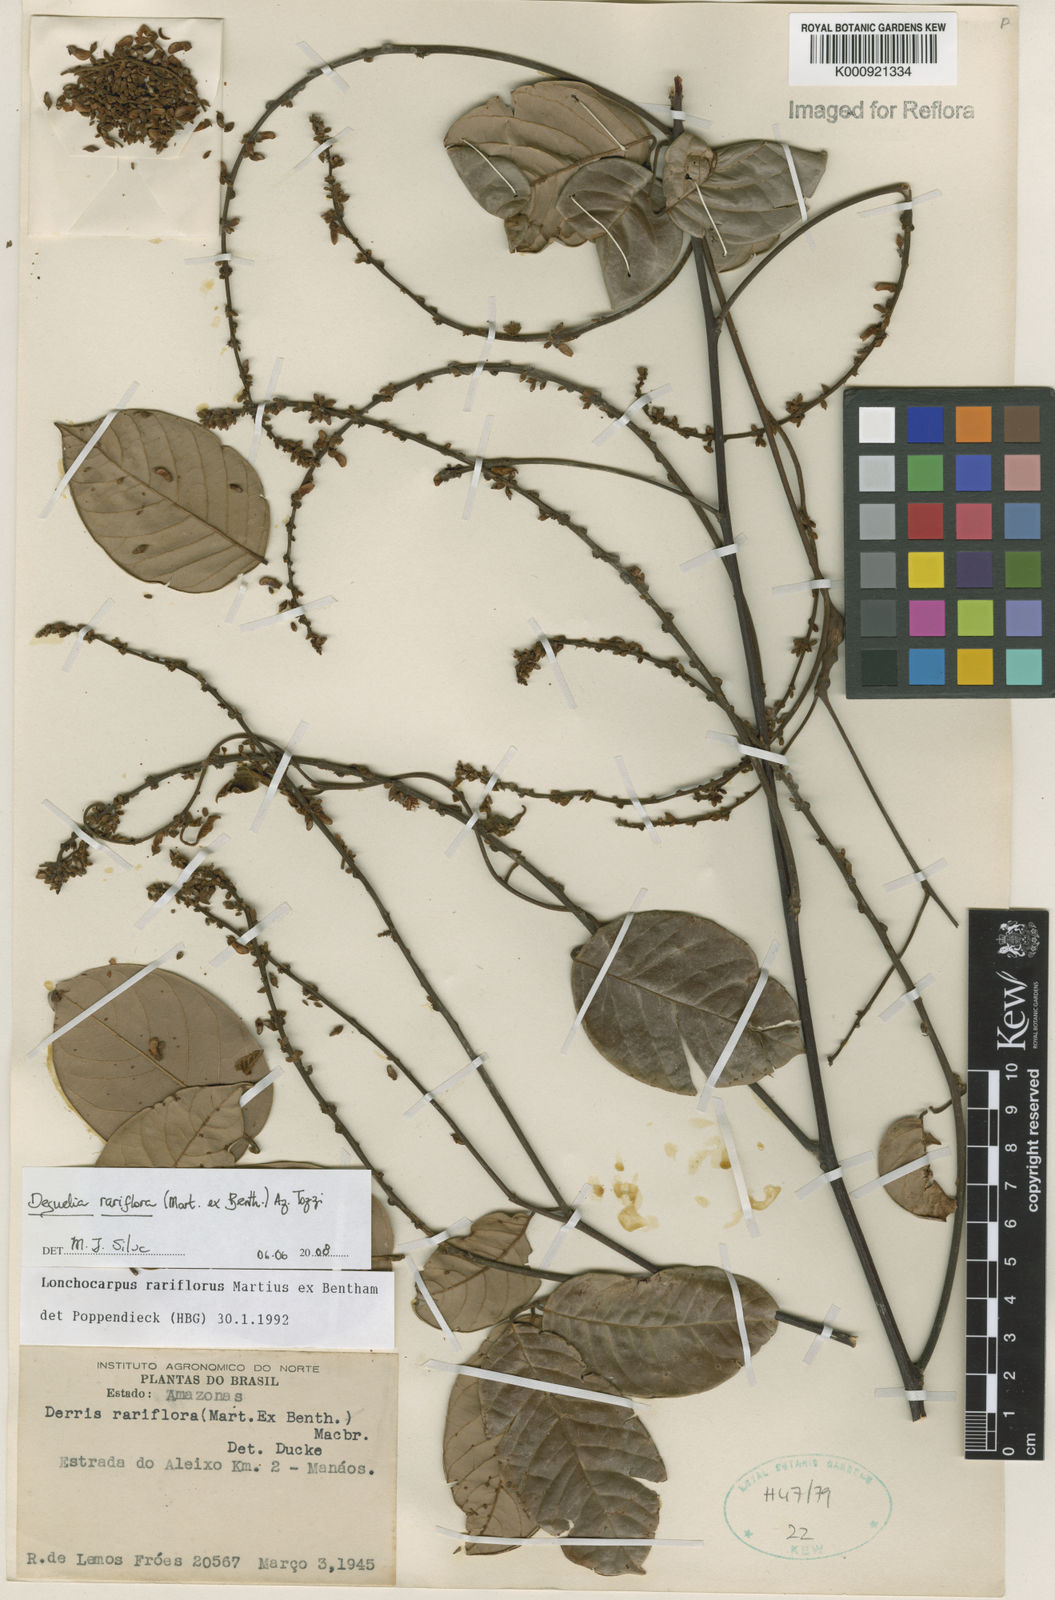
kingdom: Plantae
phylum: Tracheophyta
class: Magnoliopsida
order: Fabales
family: Fabaceae
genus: Deguelia
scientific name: Deguelia
